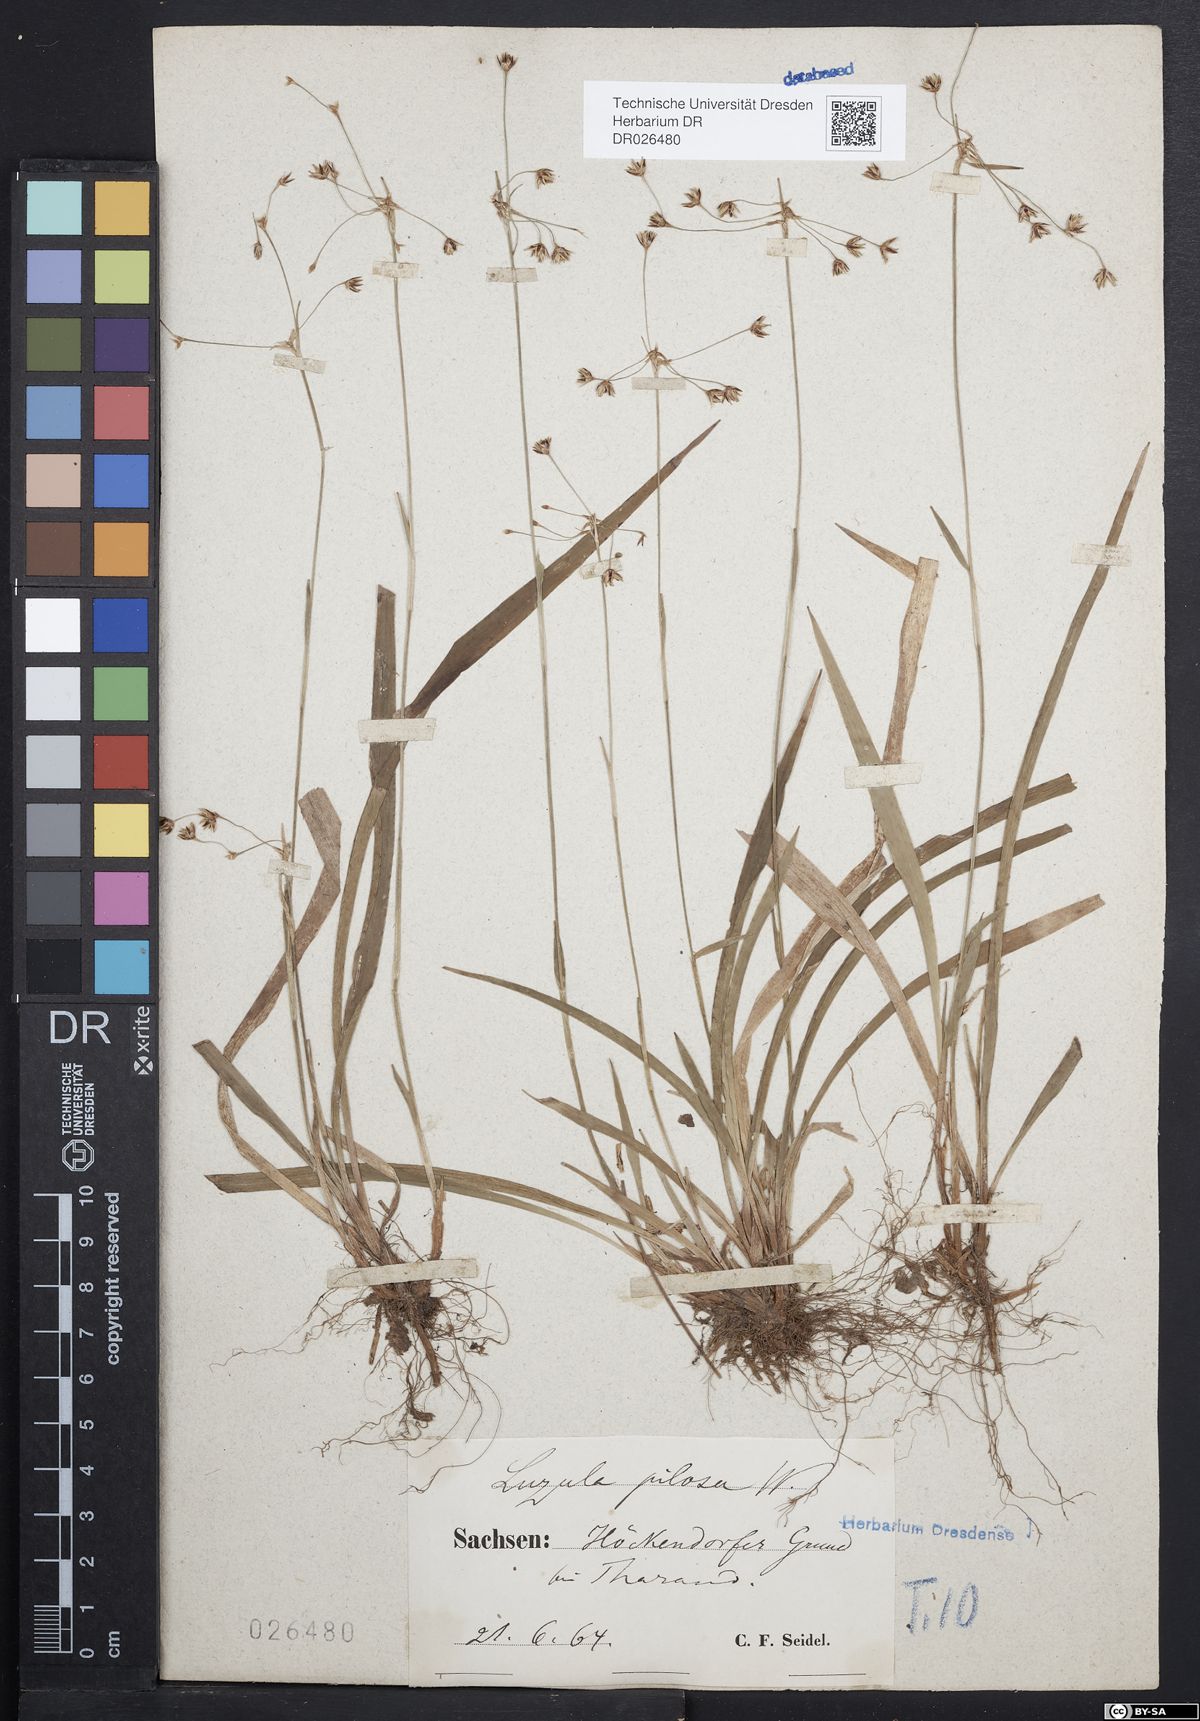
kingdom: Plantae
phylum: Tracheophyta
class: Liliopsida
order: Poales
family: Juncaceae
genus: Luzula
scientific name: Luzula pilosa
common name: Hairy wood-rush
